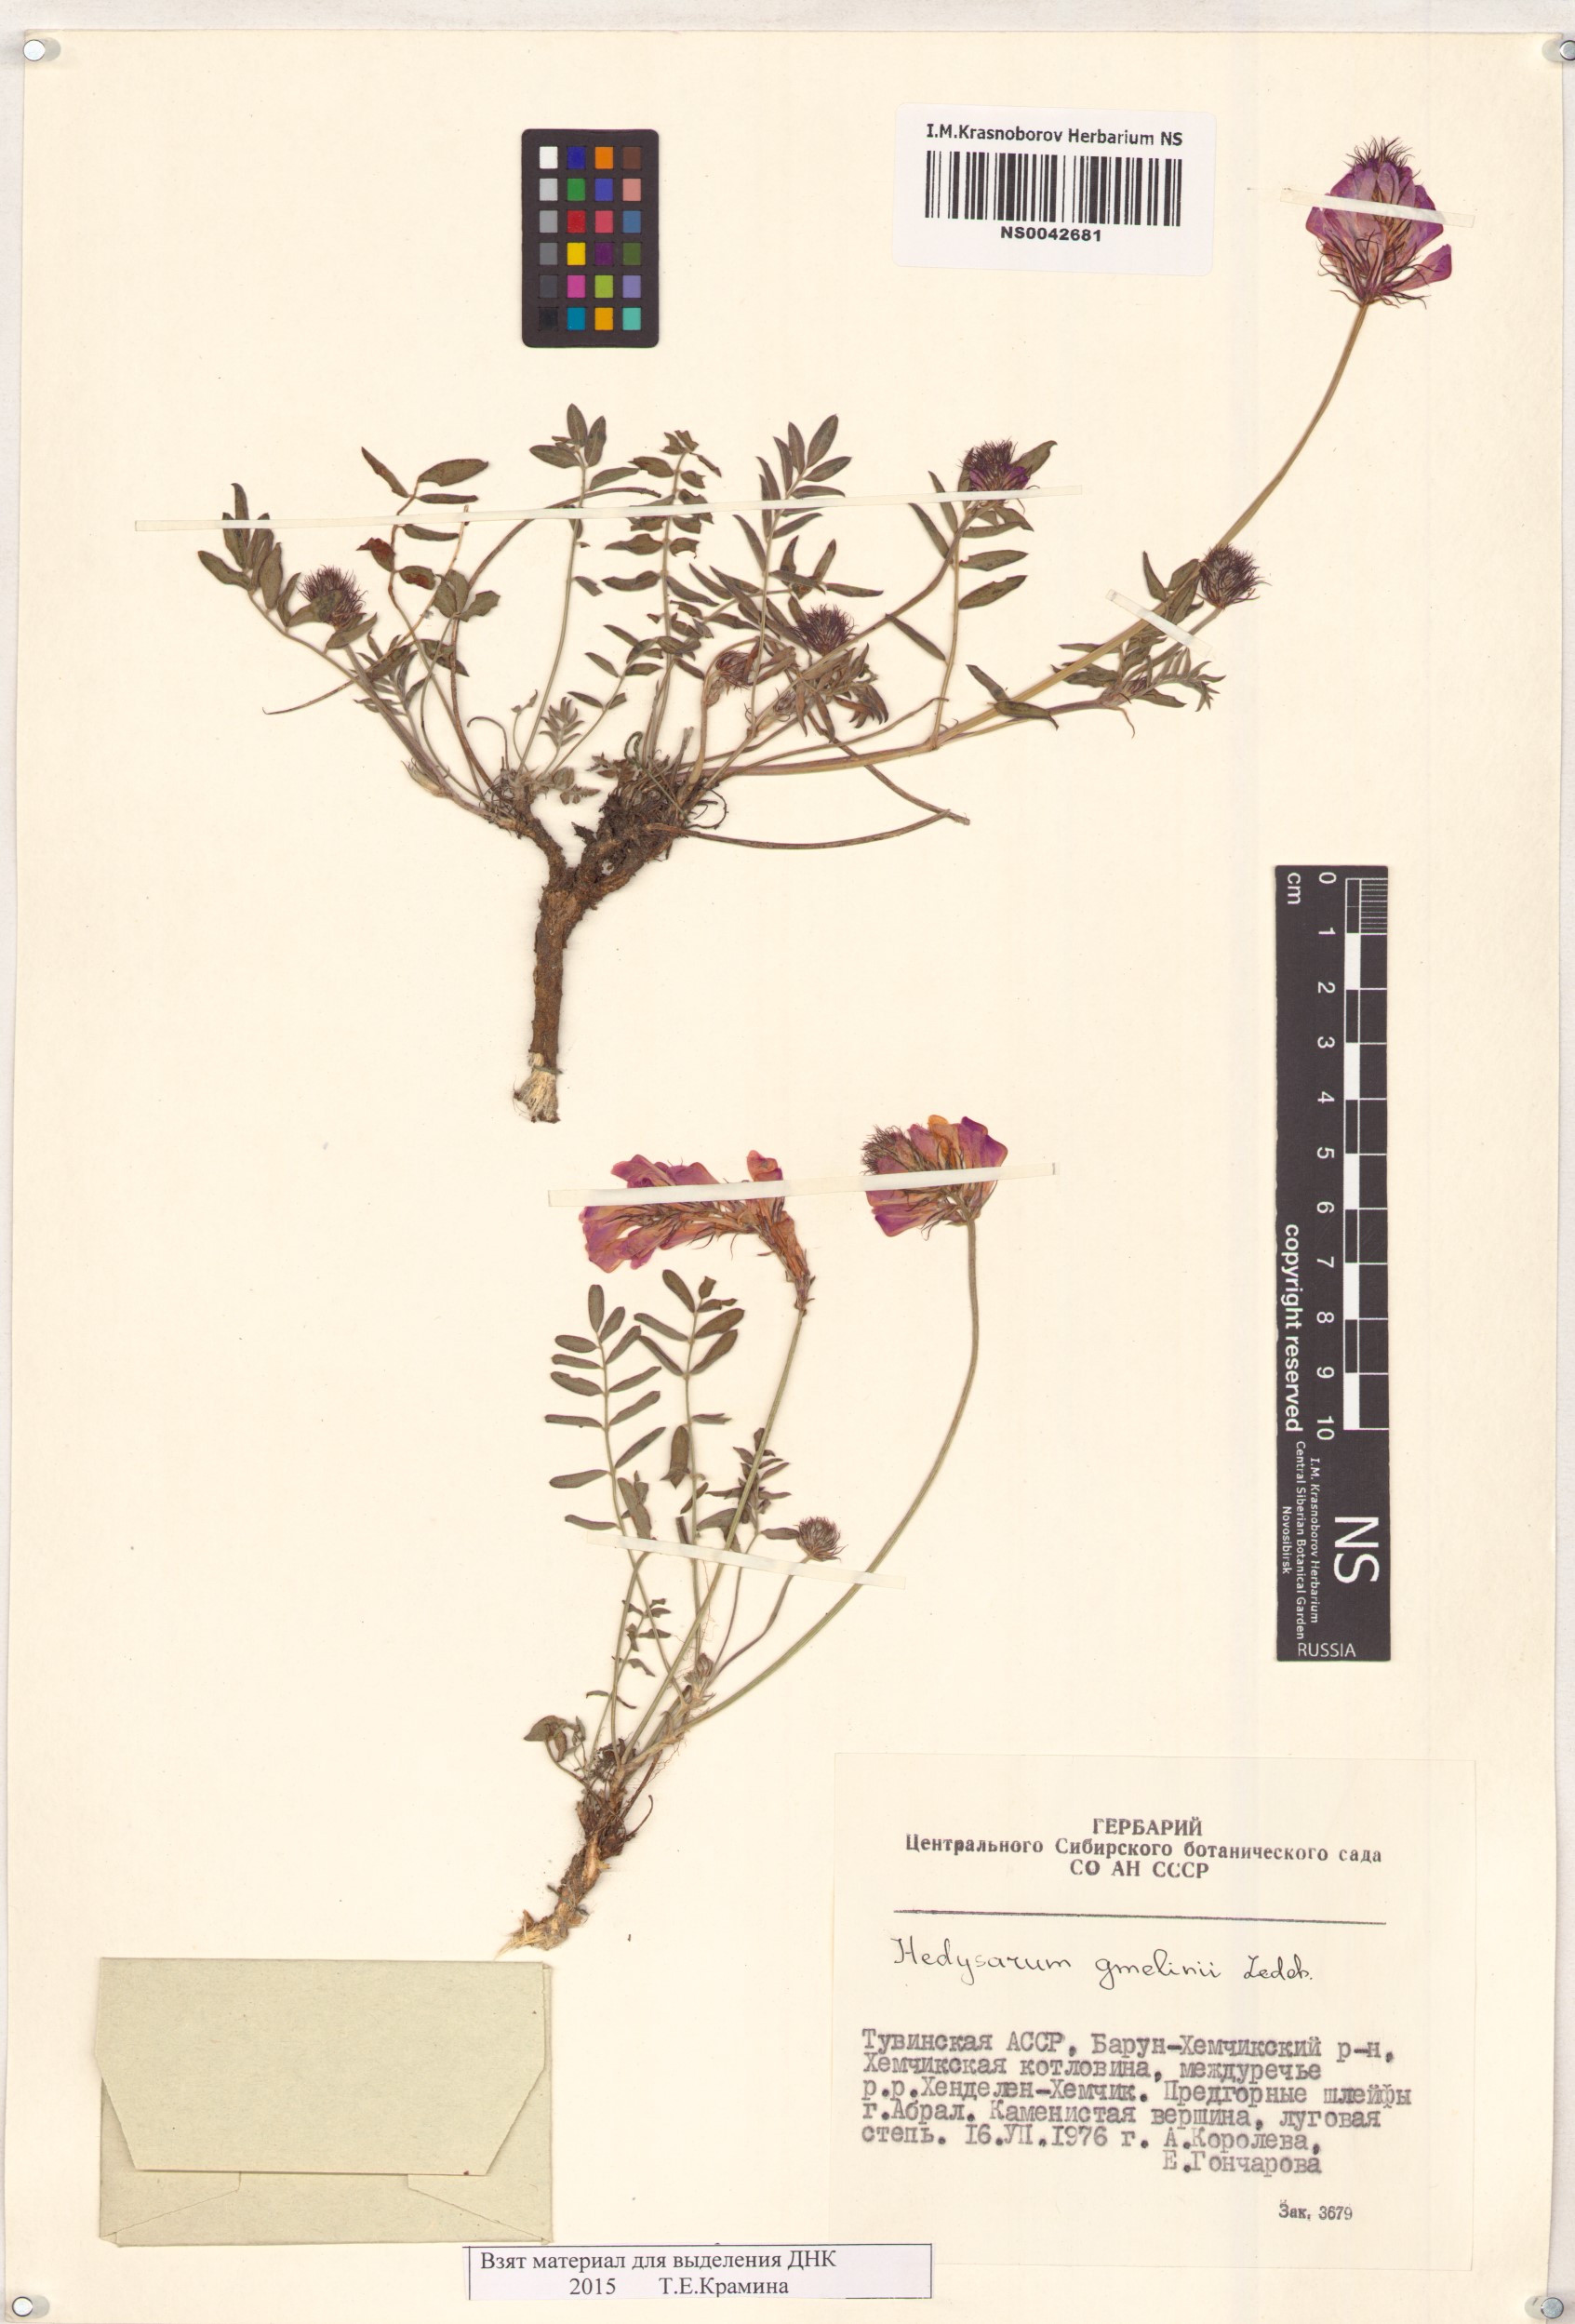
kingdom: Plantae
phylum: Tracheophyta
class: Magnoliopsida
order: Fabales
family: Fabaceae
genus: Hedysarum
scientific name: Hedysarum gmelinii
